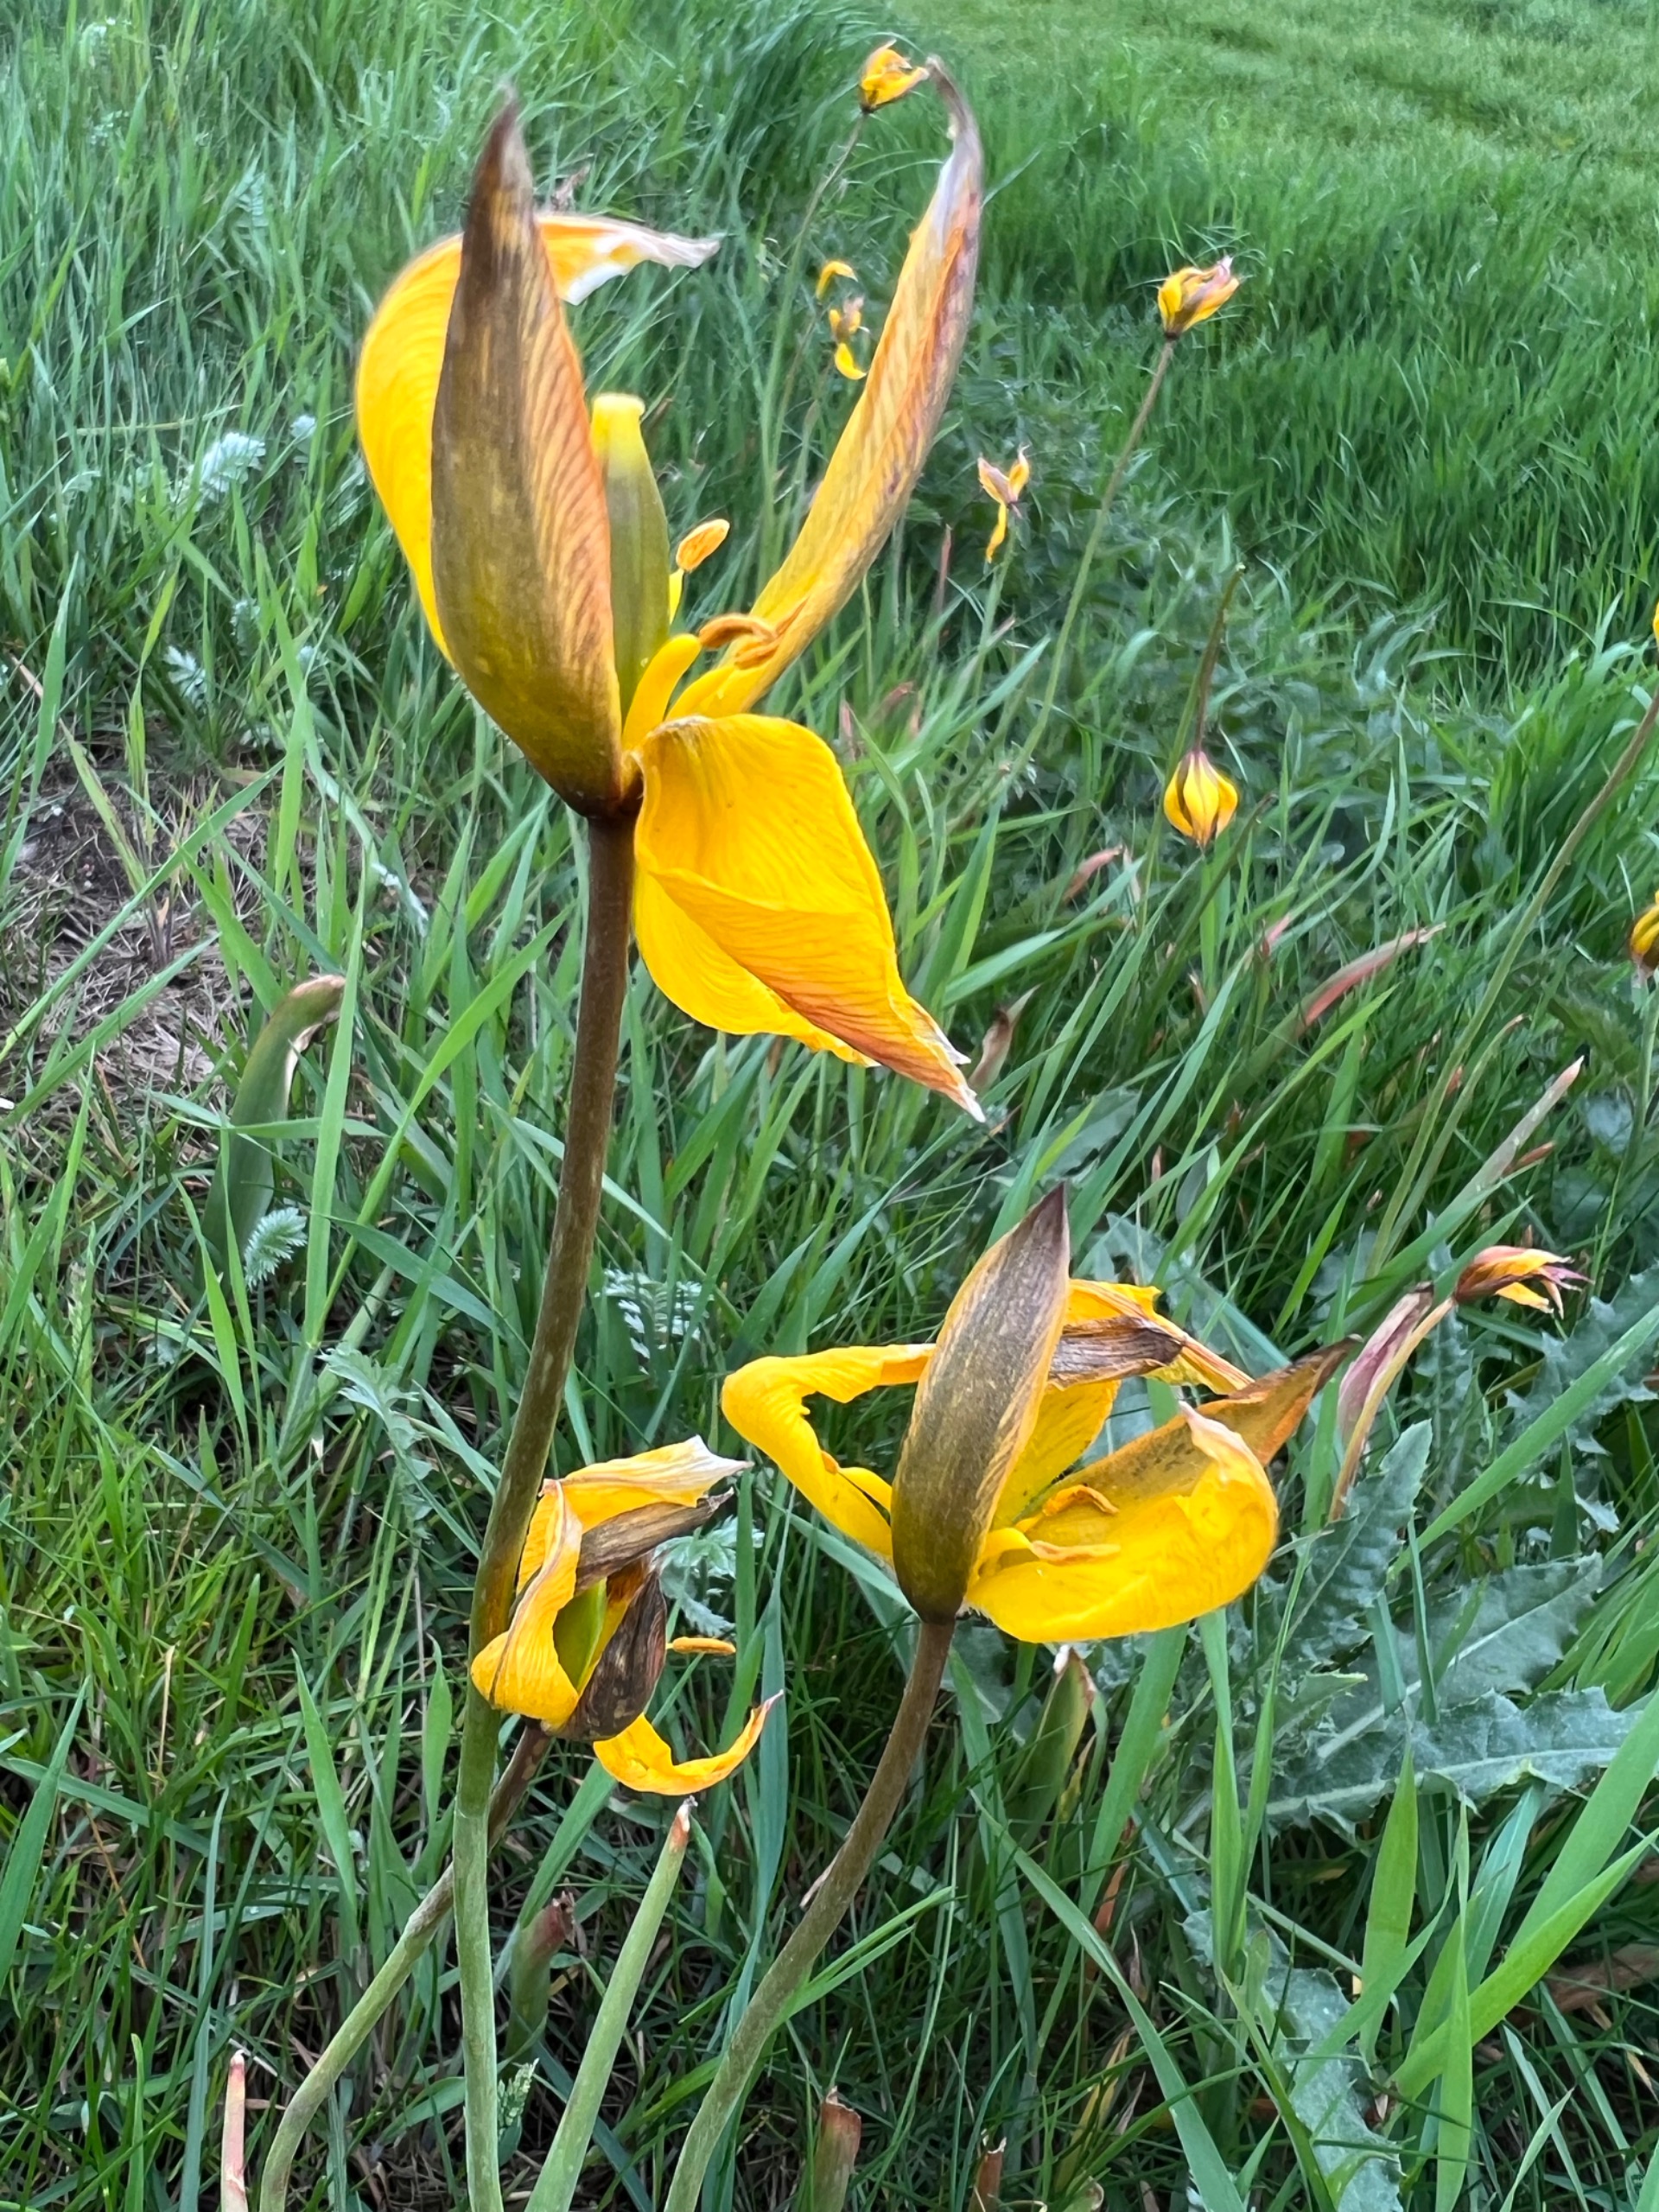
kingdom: Plantae
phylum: Tracheophyta
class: Liliopsida
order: Liliales
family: Liliaceae
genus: Tulipa
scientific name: Tulipa sylvestris
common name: Vild tulipan
